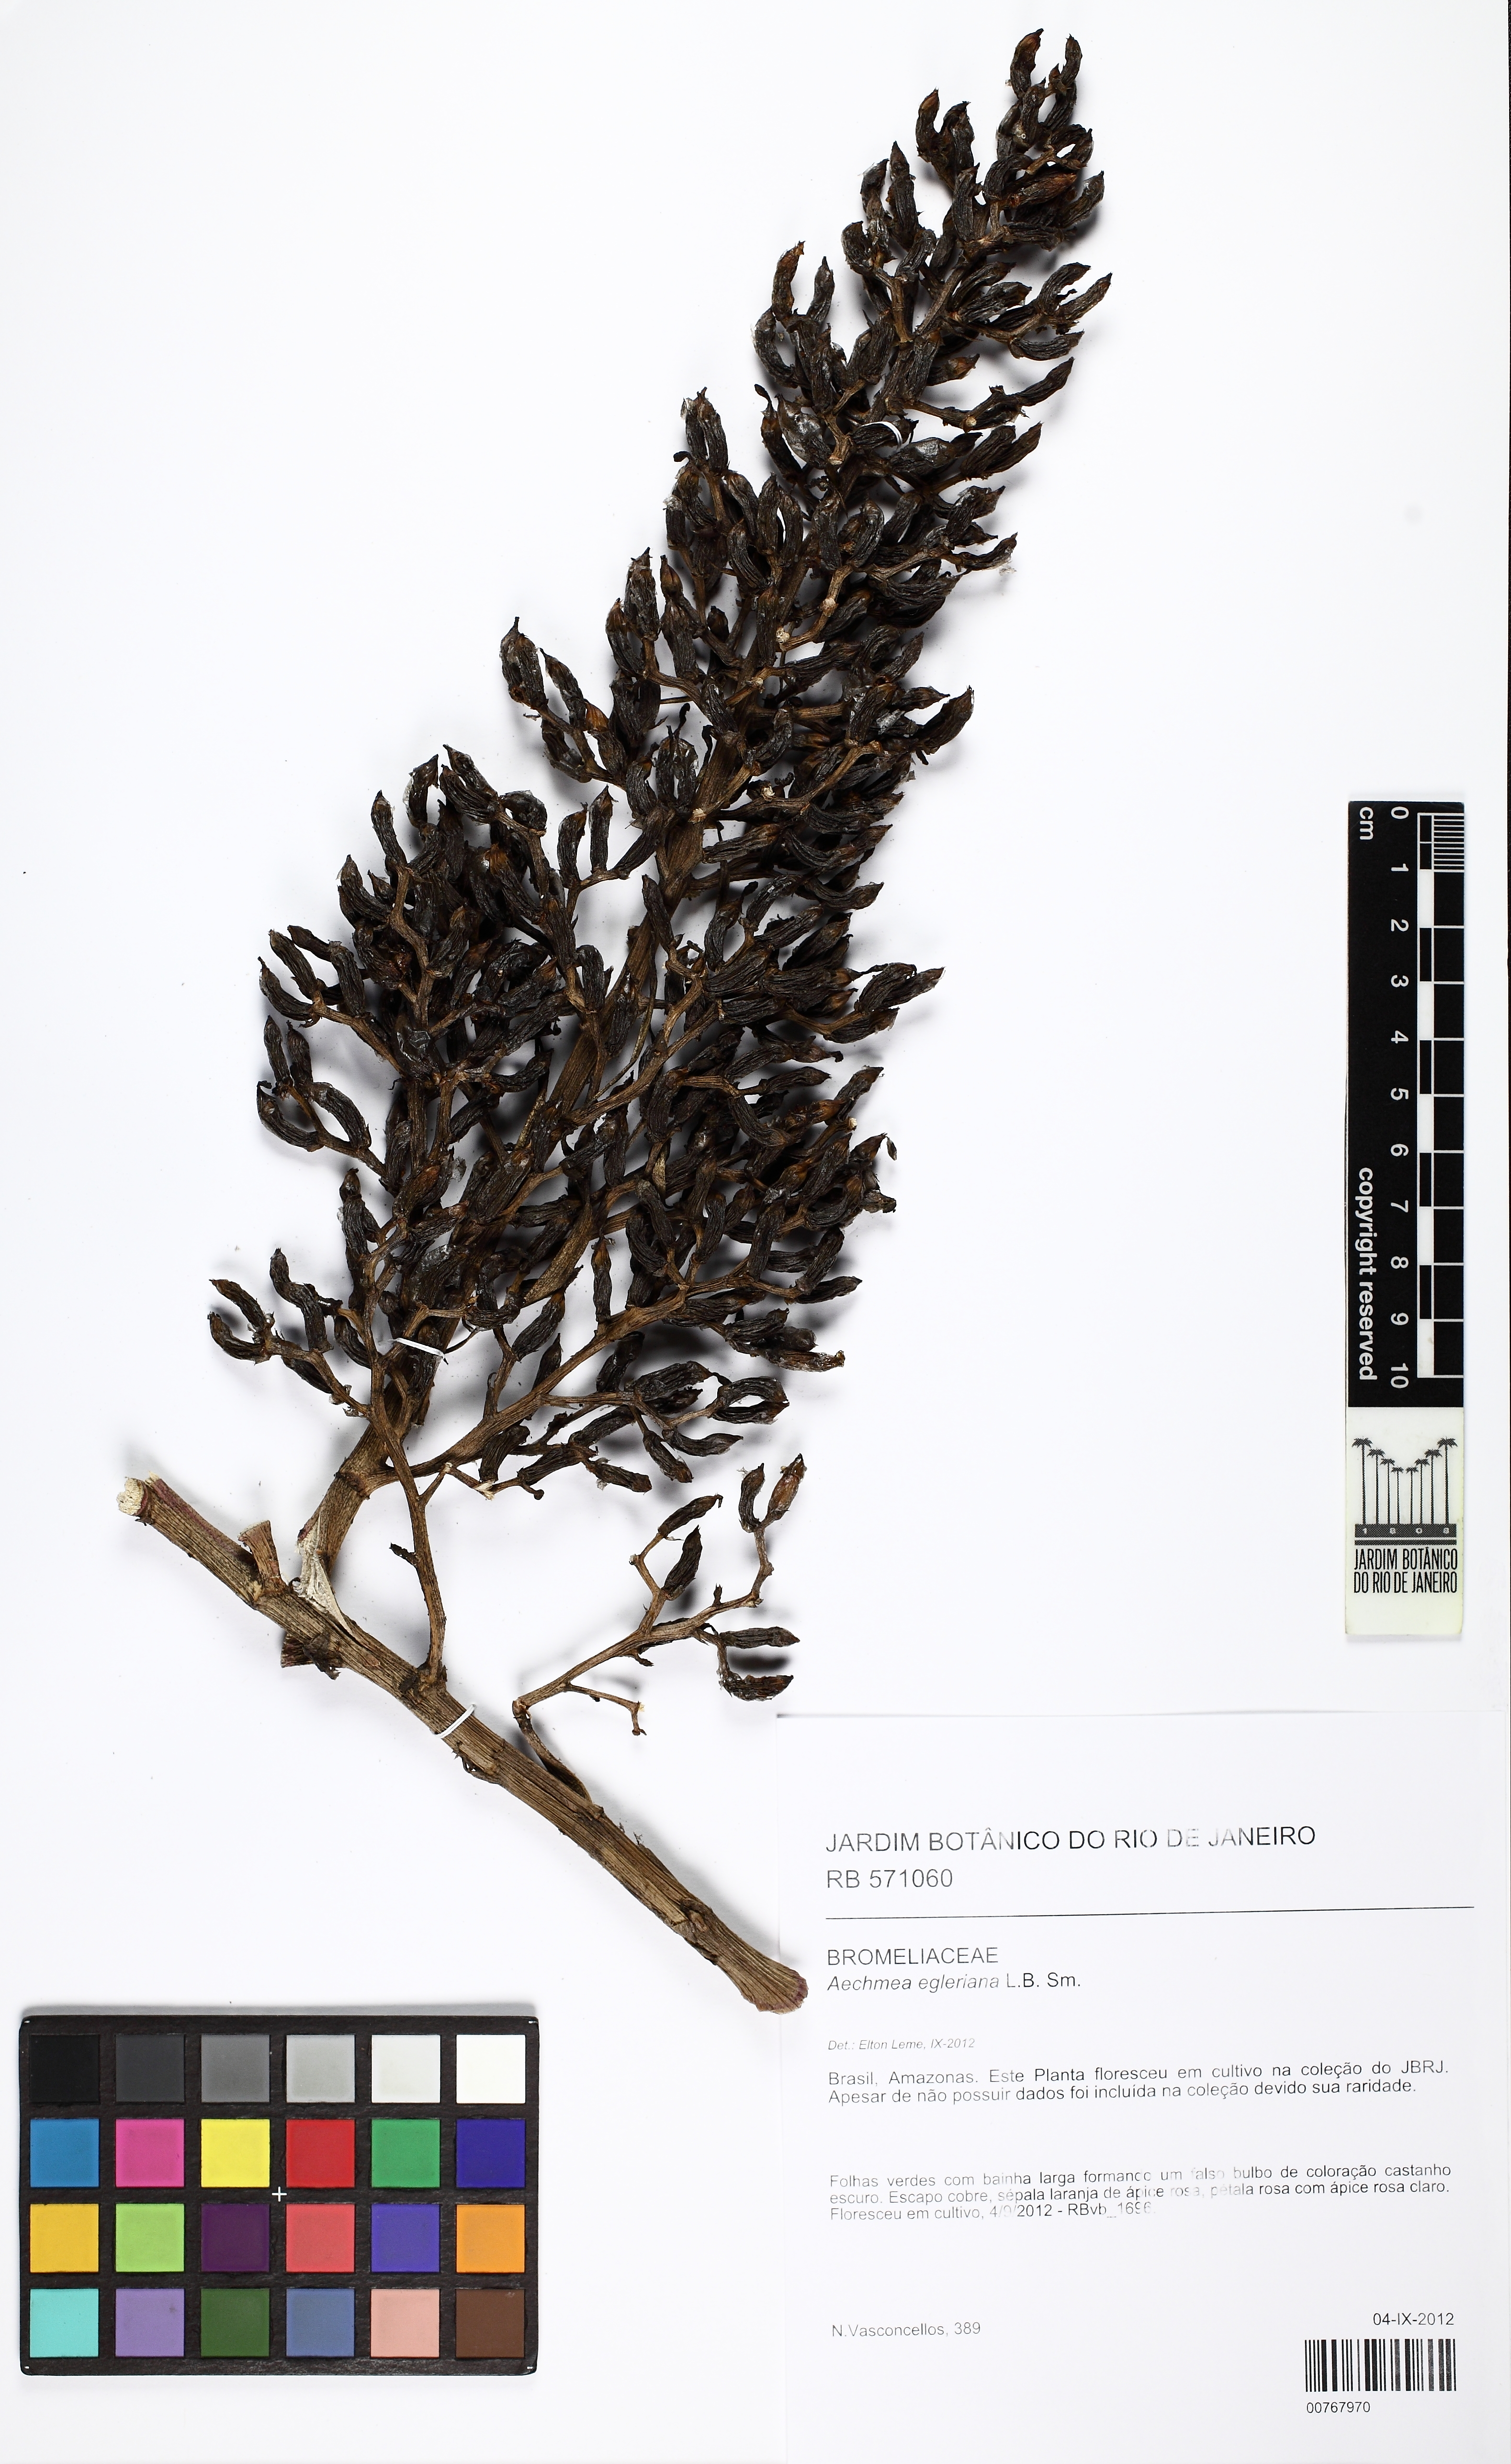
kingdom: Plantae
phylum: Tracheophyta
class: Liliopsida
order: Poales
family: Bromeliaceae
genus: Aechmea
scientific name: Aechmea egleriana
